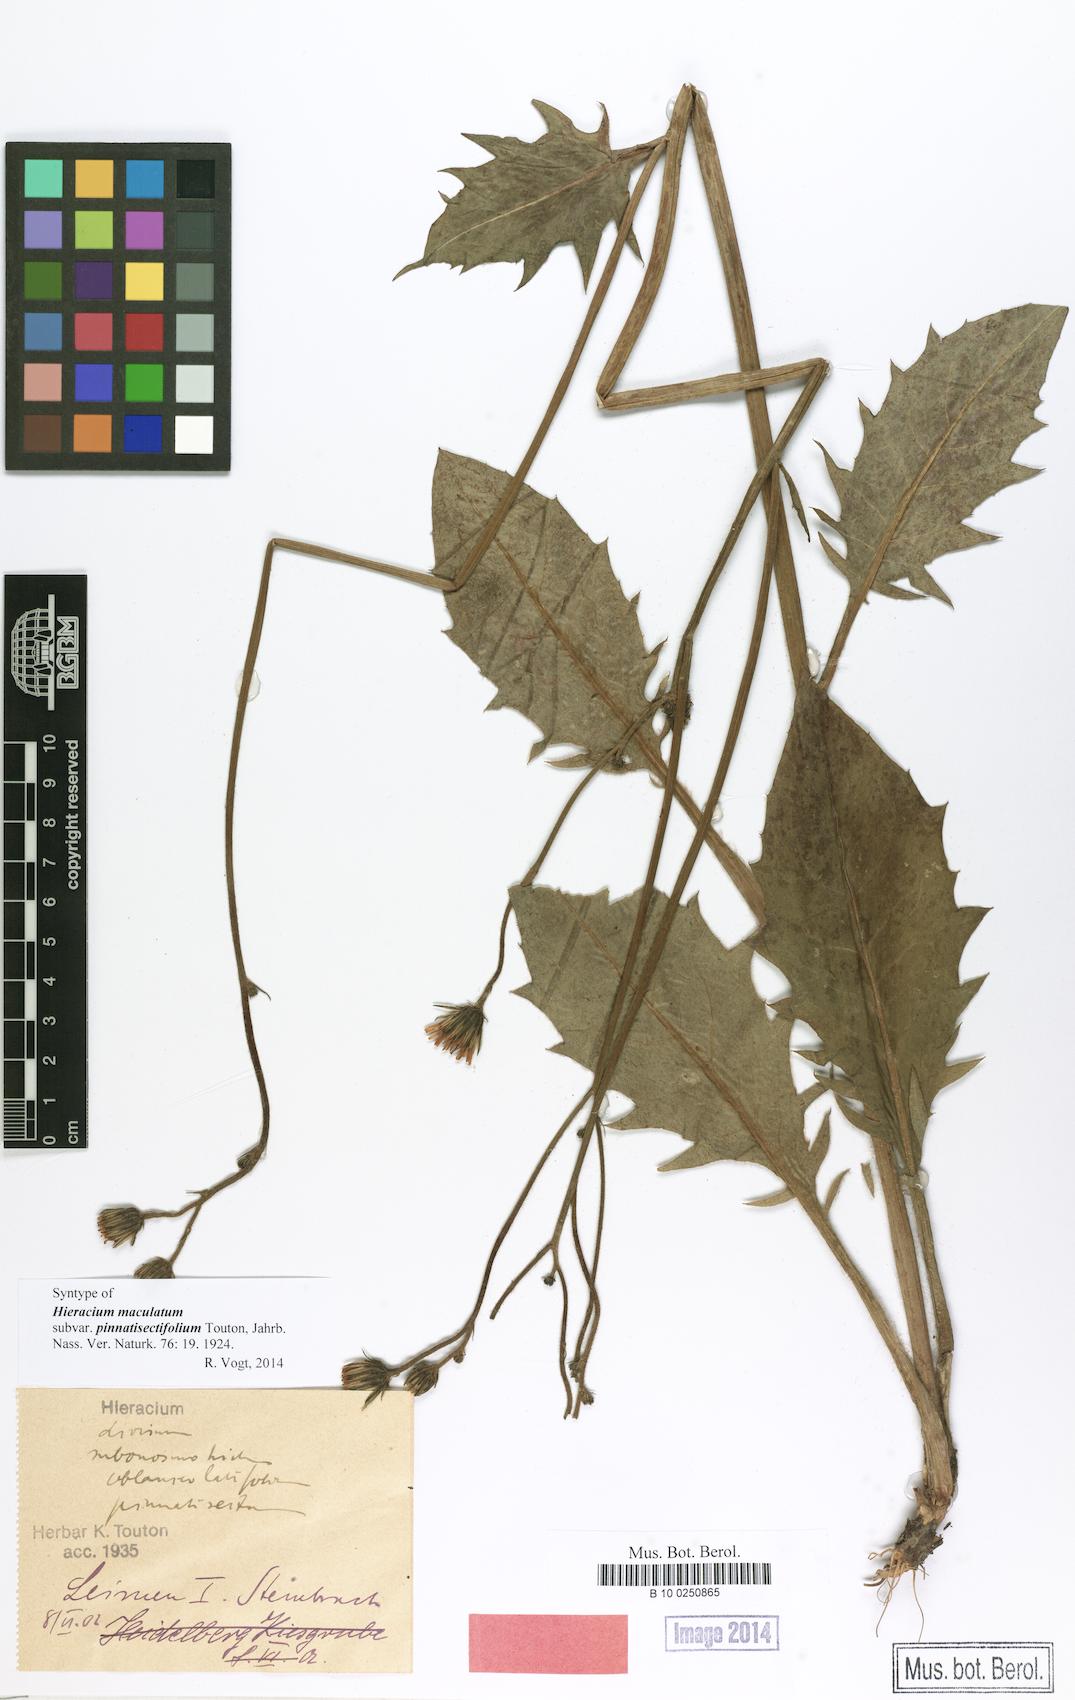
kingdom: Plantae
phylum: Tracheophyta
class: Magnoliopsida
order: Asterales
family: Asteraceae
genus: Hieracium
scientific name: Hieracium maculatum
